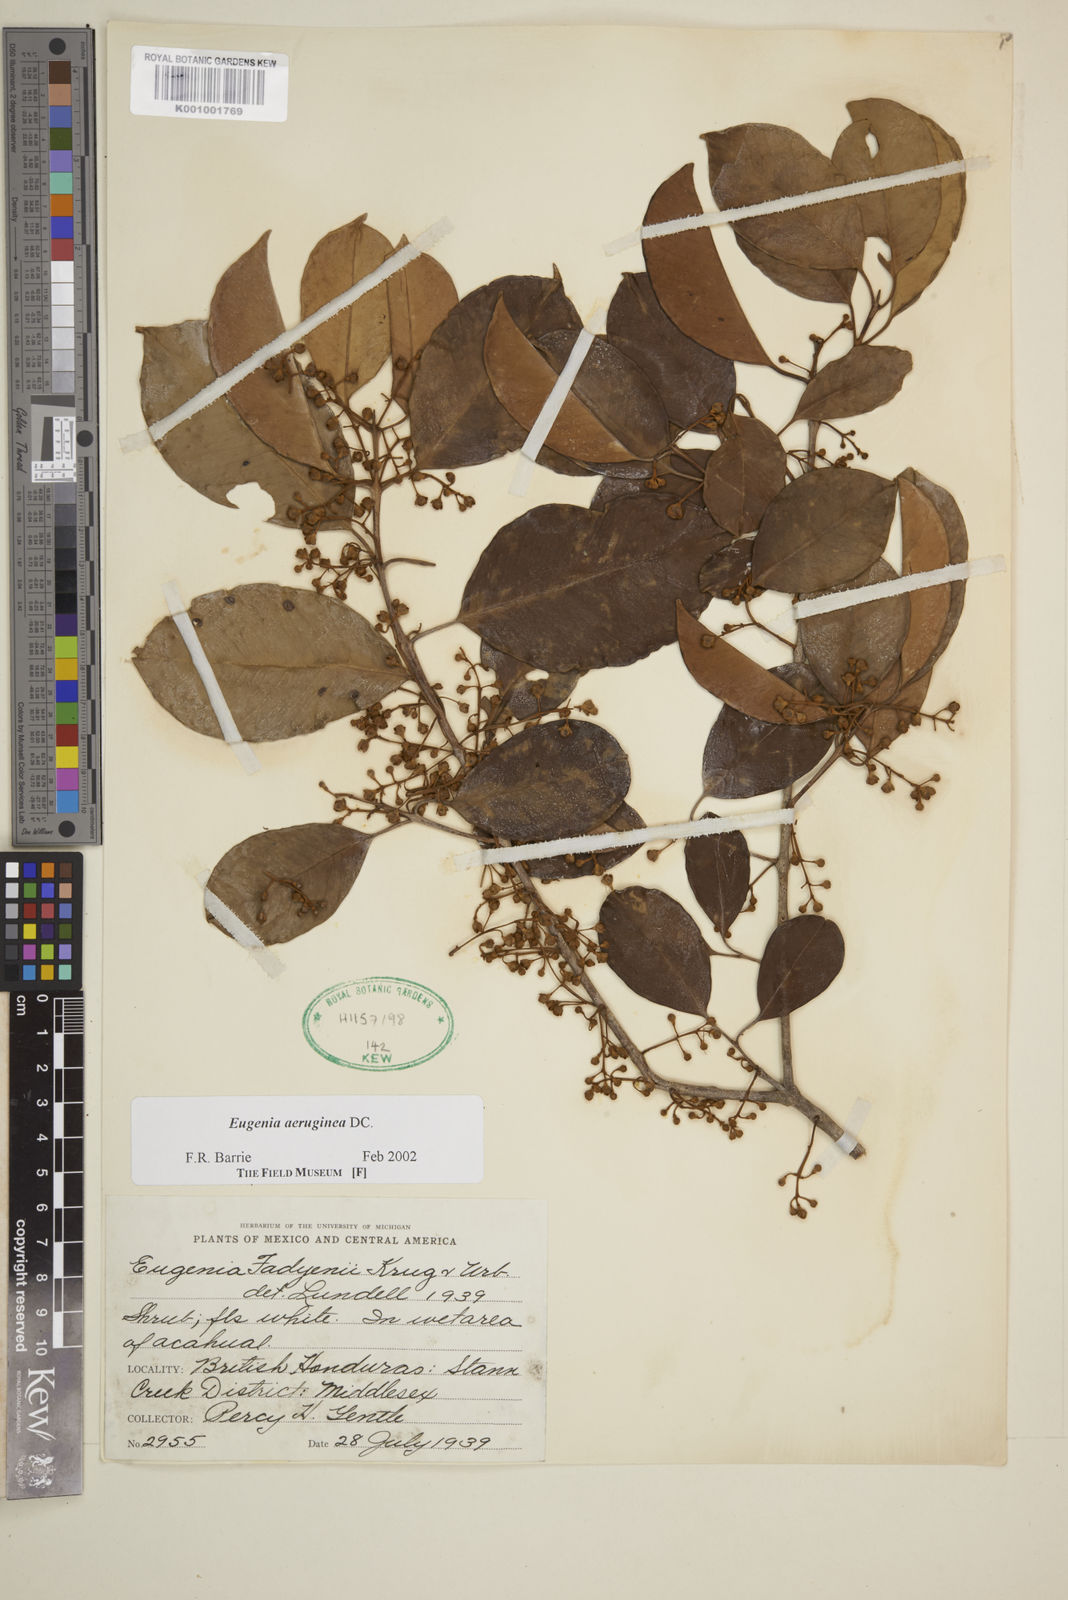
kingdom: Plantae
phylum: Tracheophyta
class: Magnoliopsida
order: Myrtales
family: Myrtaceae
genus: Eugenia
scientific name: Eugenia aeruginea
